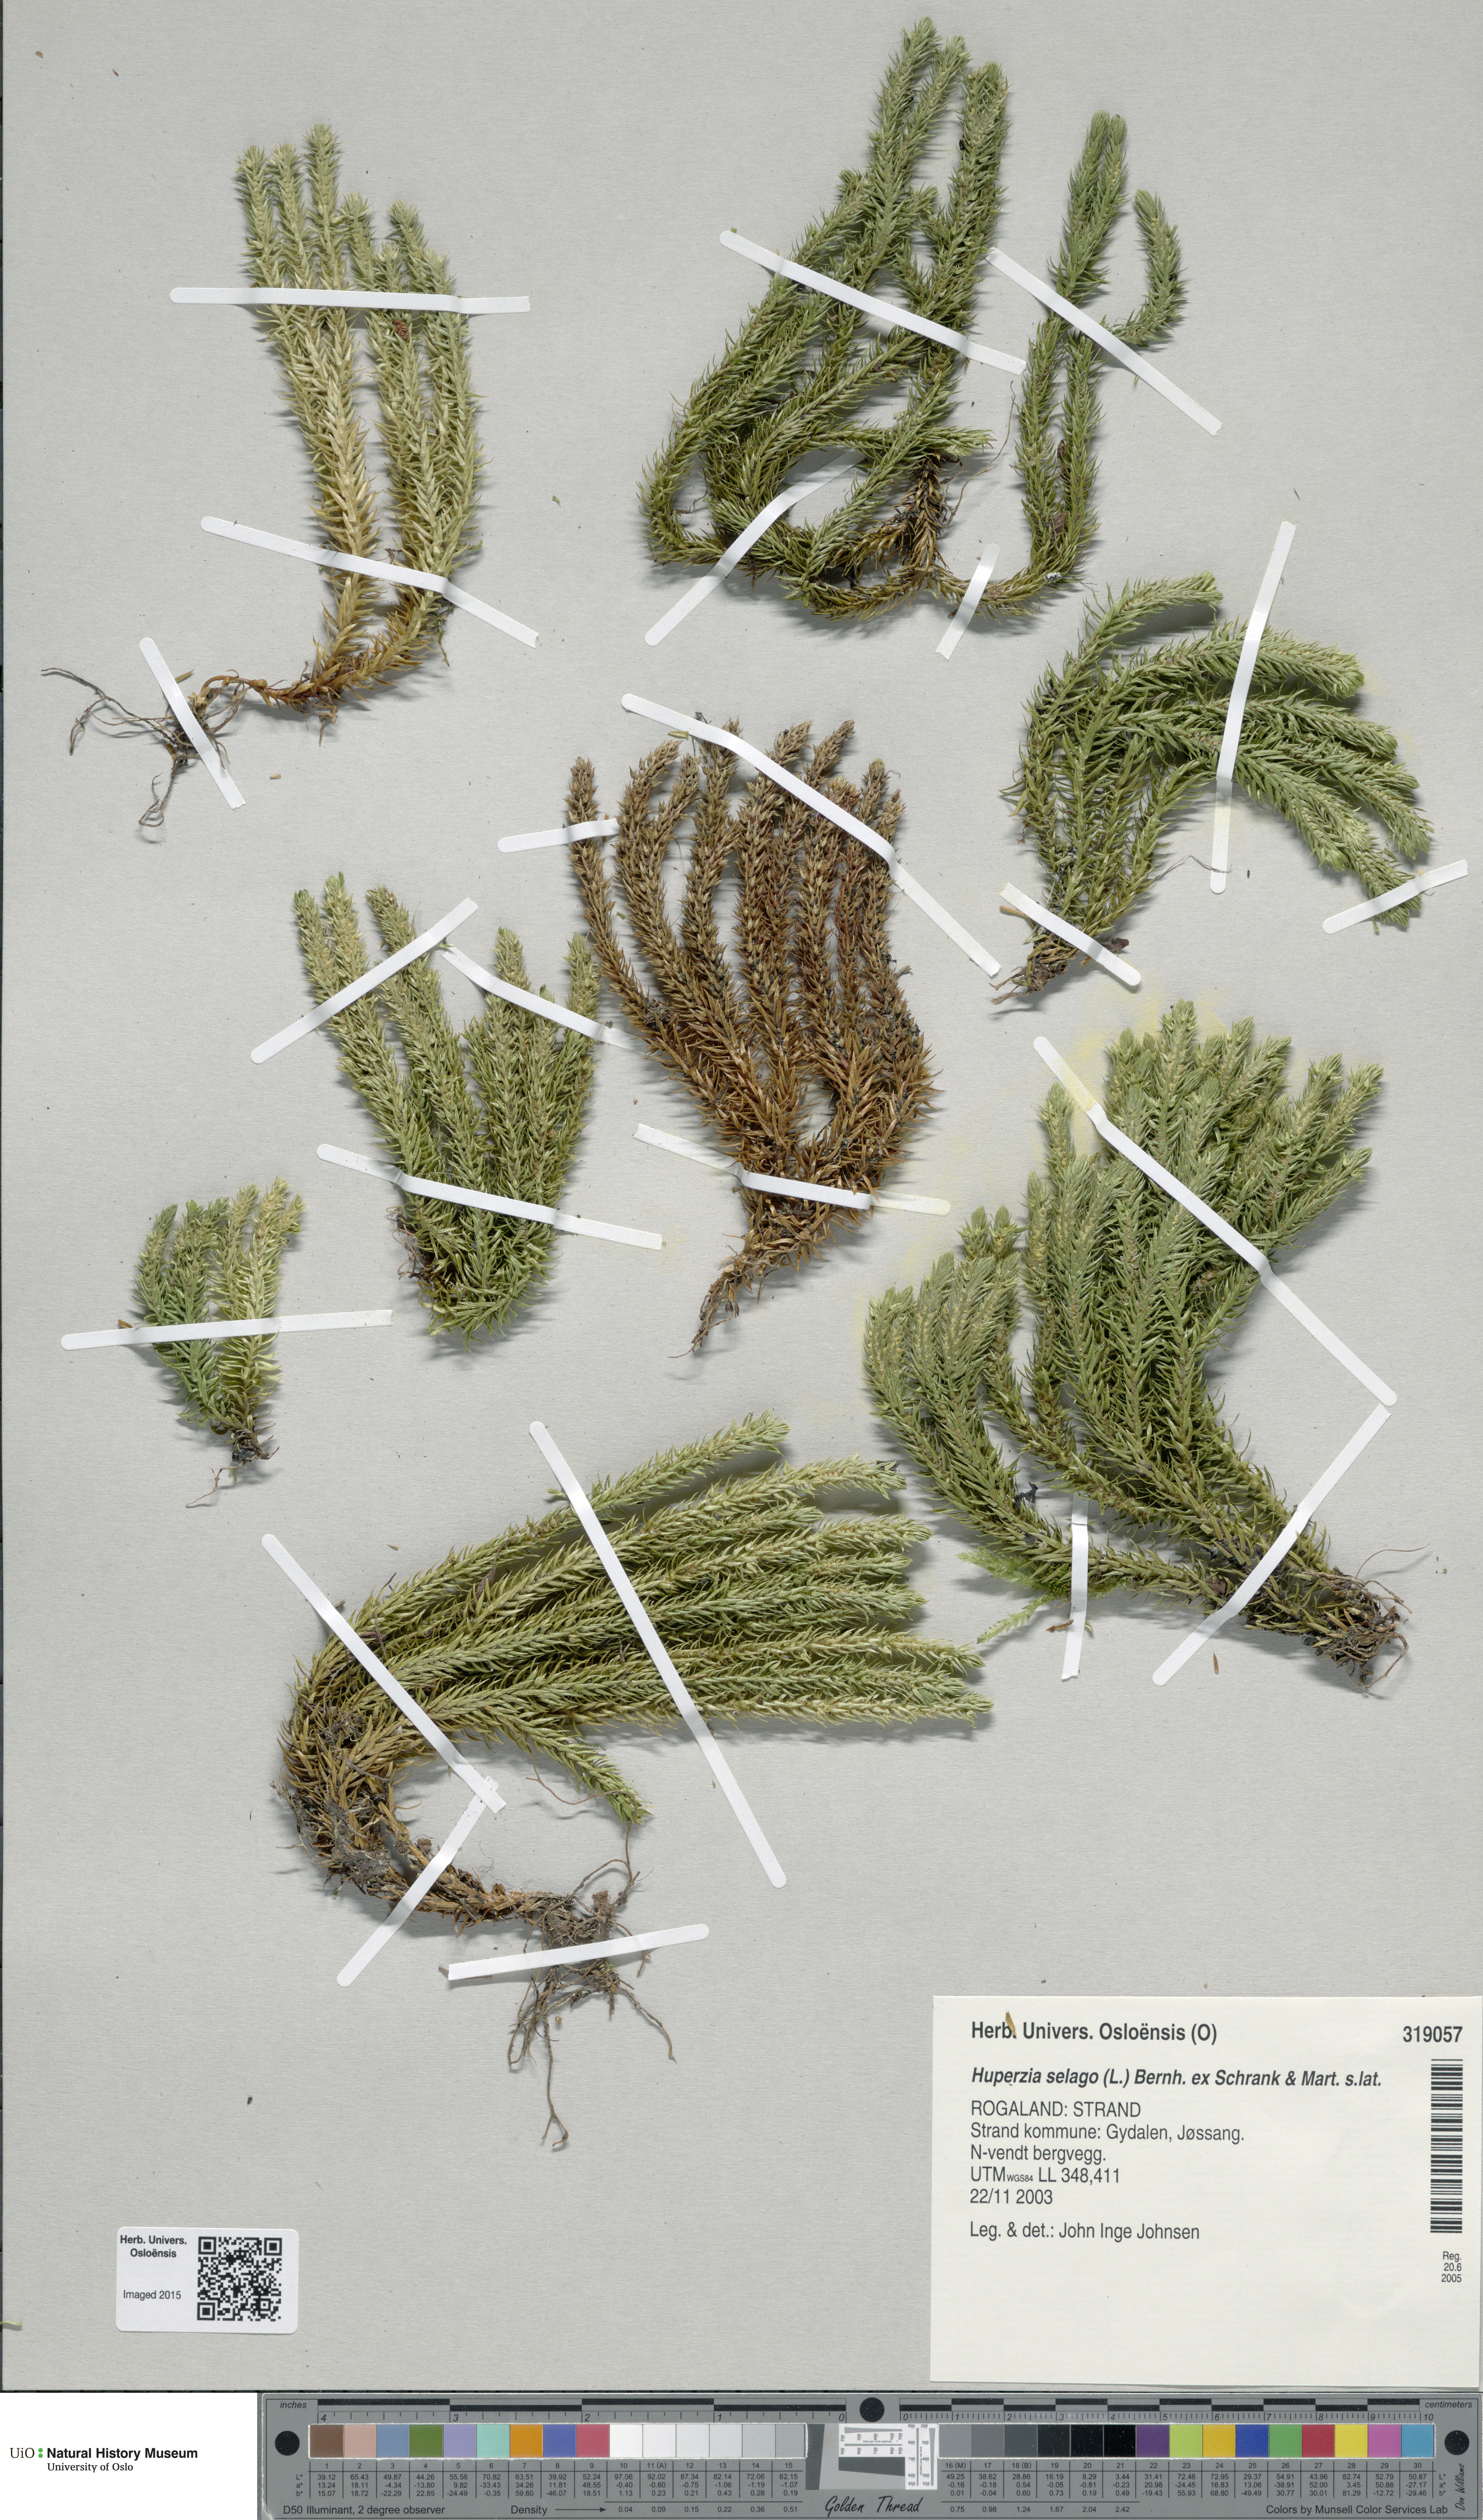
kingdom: Plantae
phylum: Tracheophyta
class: Lycopodiopsida
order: Lycopodiales
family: Lycopodiaceae
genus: Huperzia
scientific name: Huperzia selago
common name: Northern firmoss
